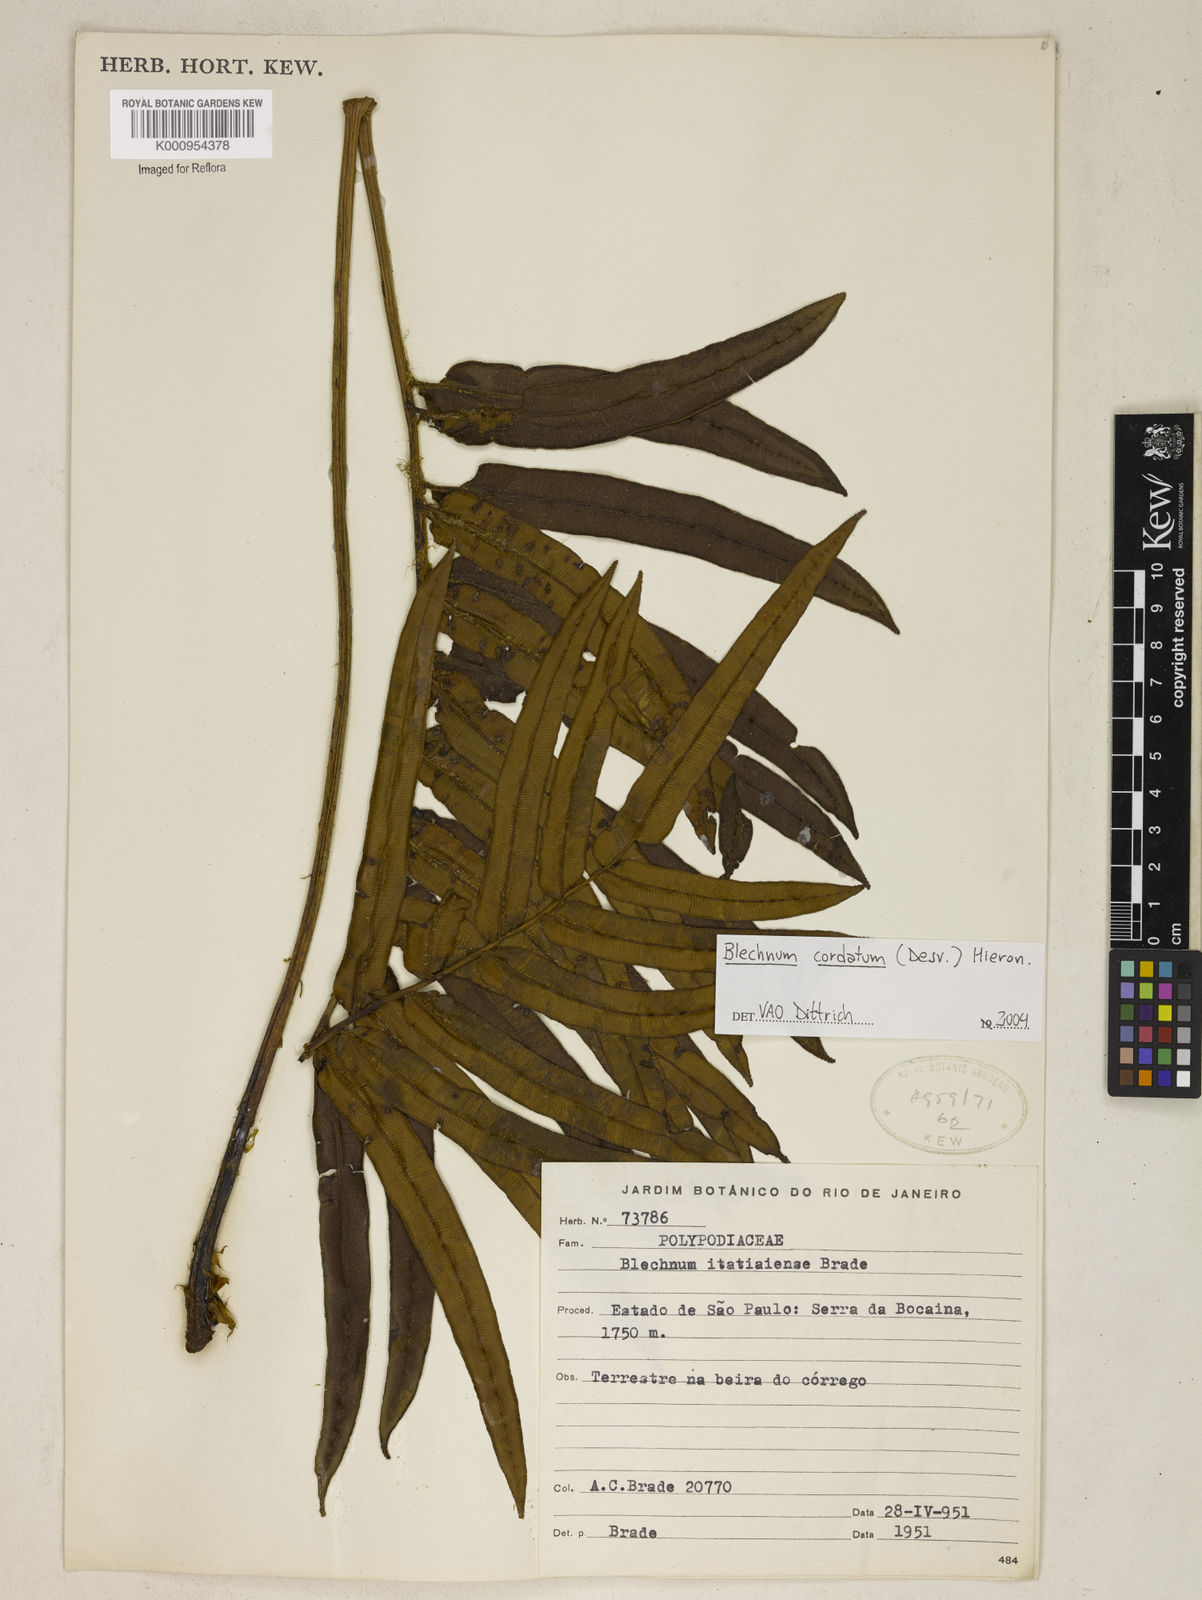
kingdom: Plantae
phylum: Tracheophyta
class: Polypodiopsida
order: Polypodiales
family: Blechnaceae
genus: Parablechnum
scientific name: Parablechnum cordatum
